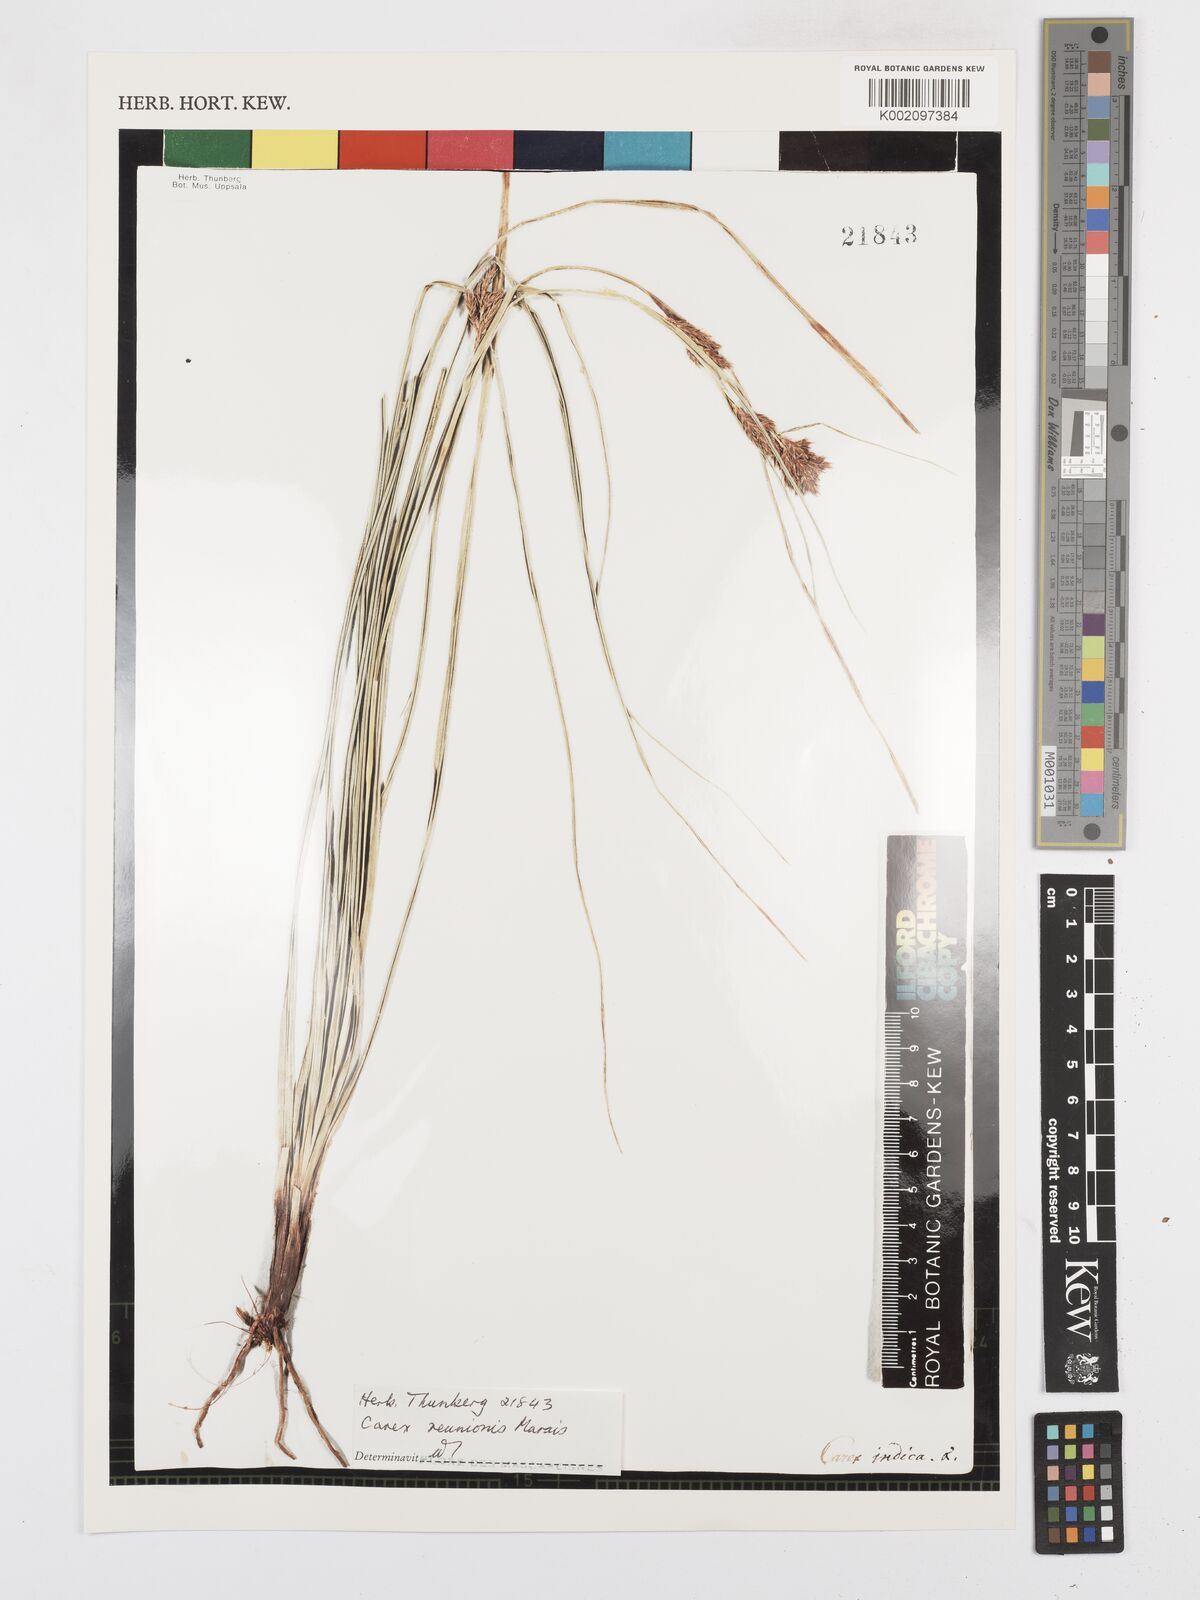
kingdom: Plantae
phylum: Tracheophyta
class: Liliopsida
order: Poales
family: Cyperaceae
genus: Carex
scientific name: Carex
